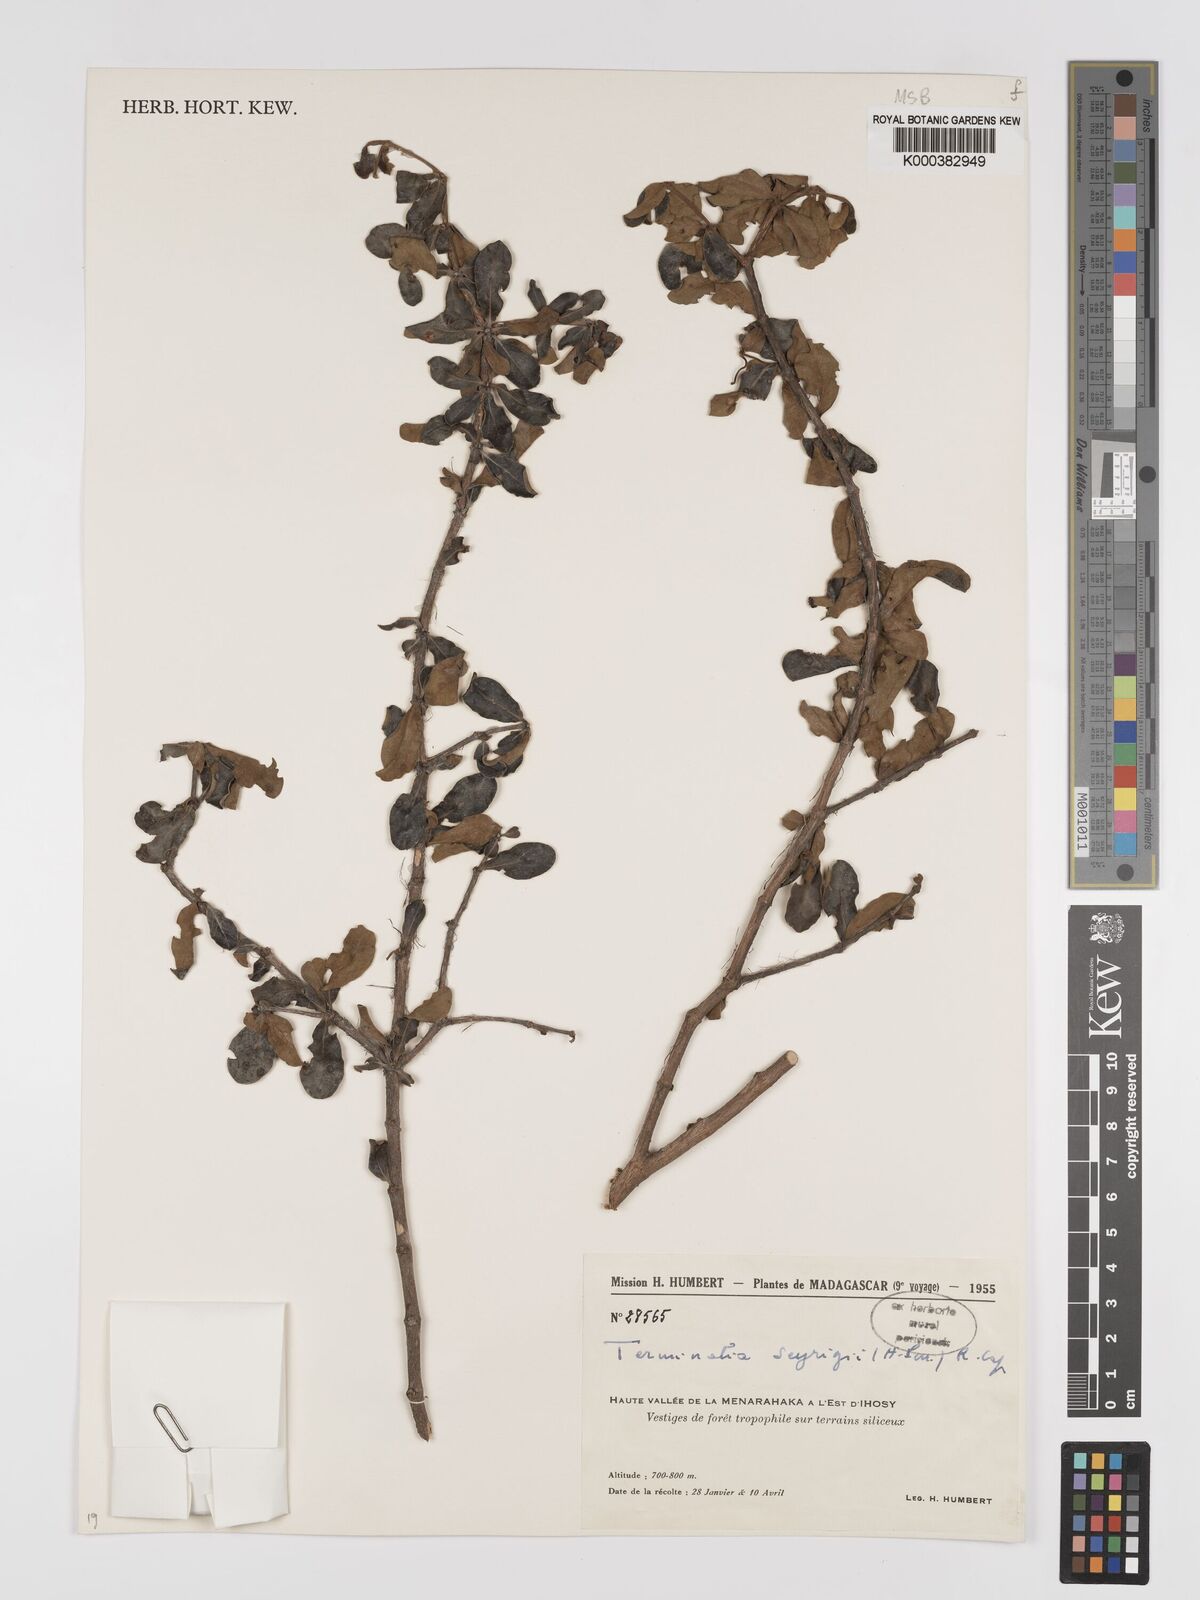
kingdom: Plantae
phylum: Tracheophyta
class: Magnoliopsida
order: Myrtales
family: Combretaceae
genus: Terminalia
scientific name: Terminalia seyrigii
